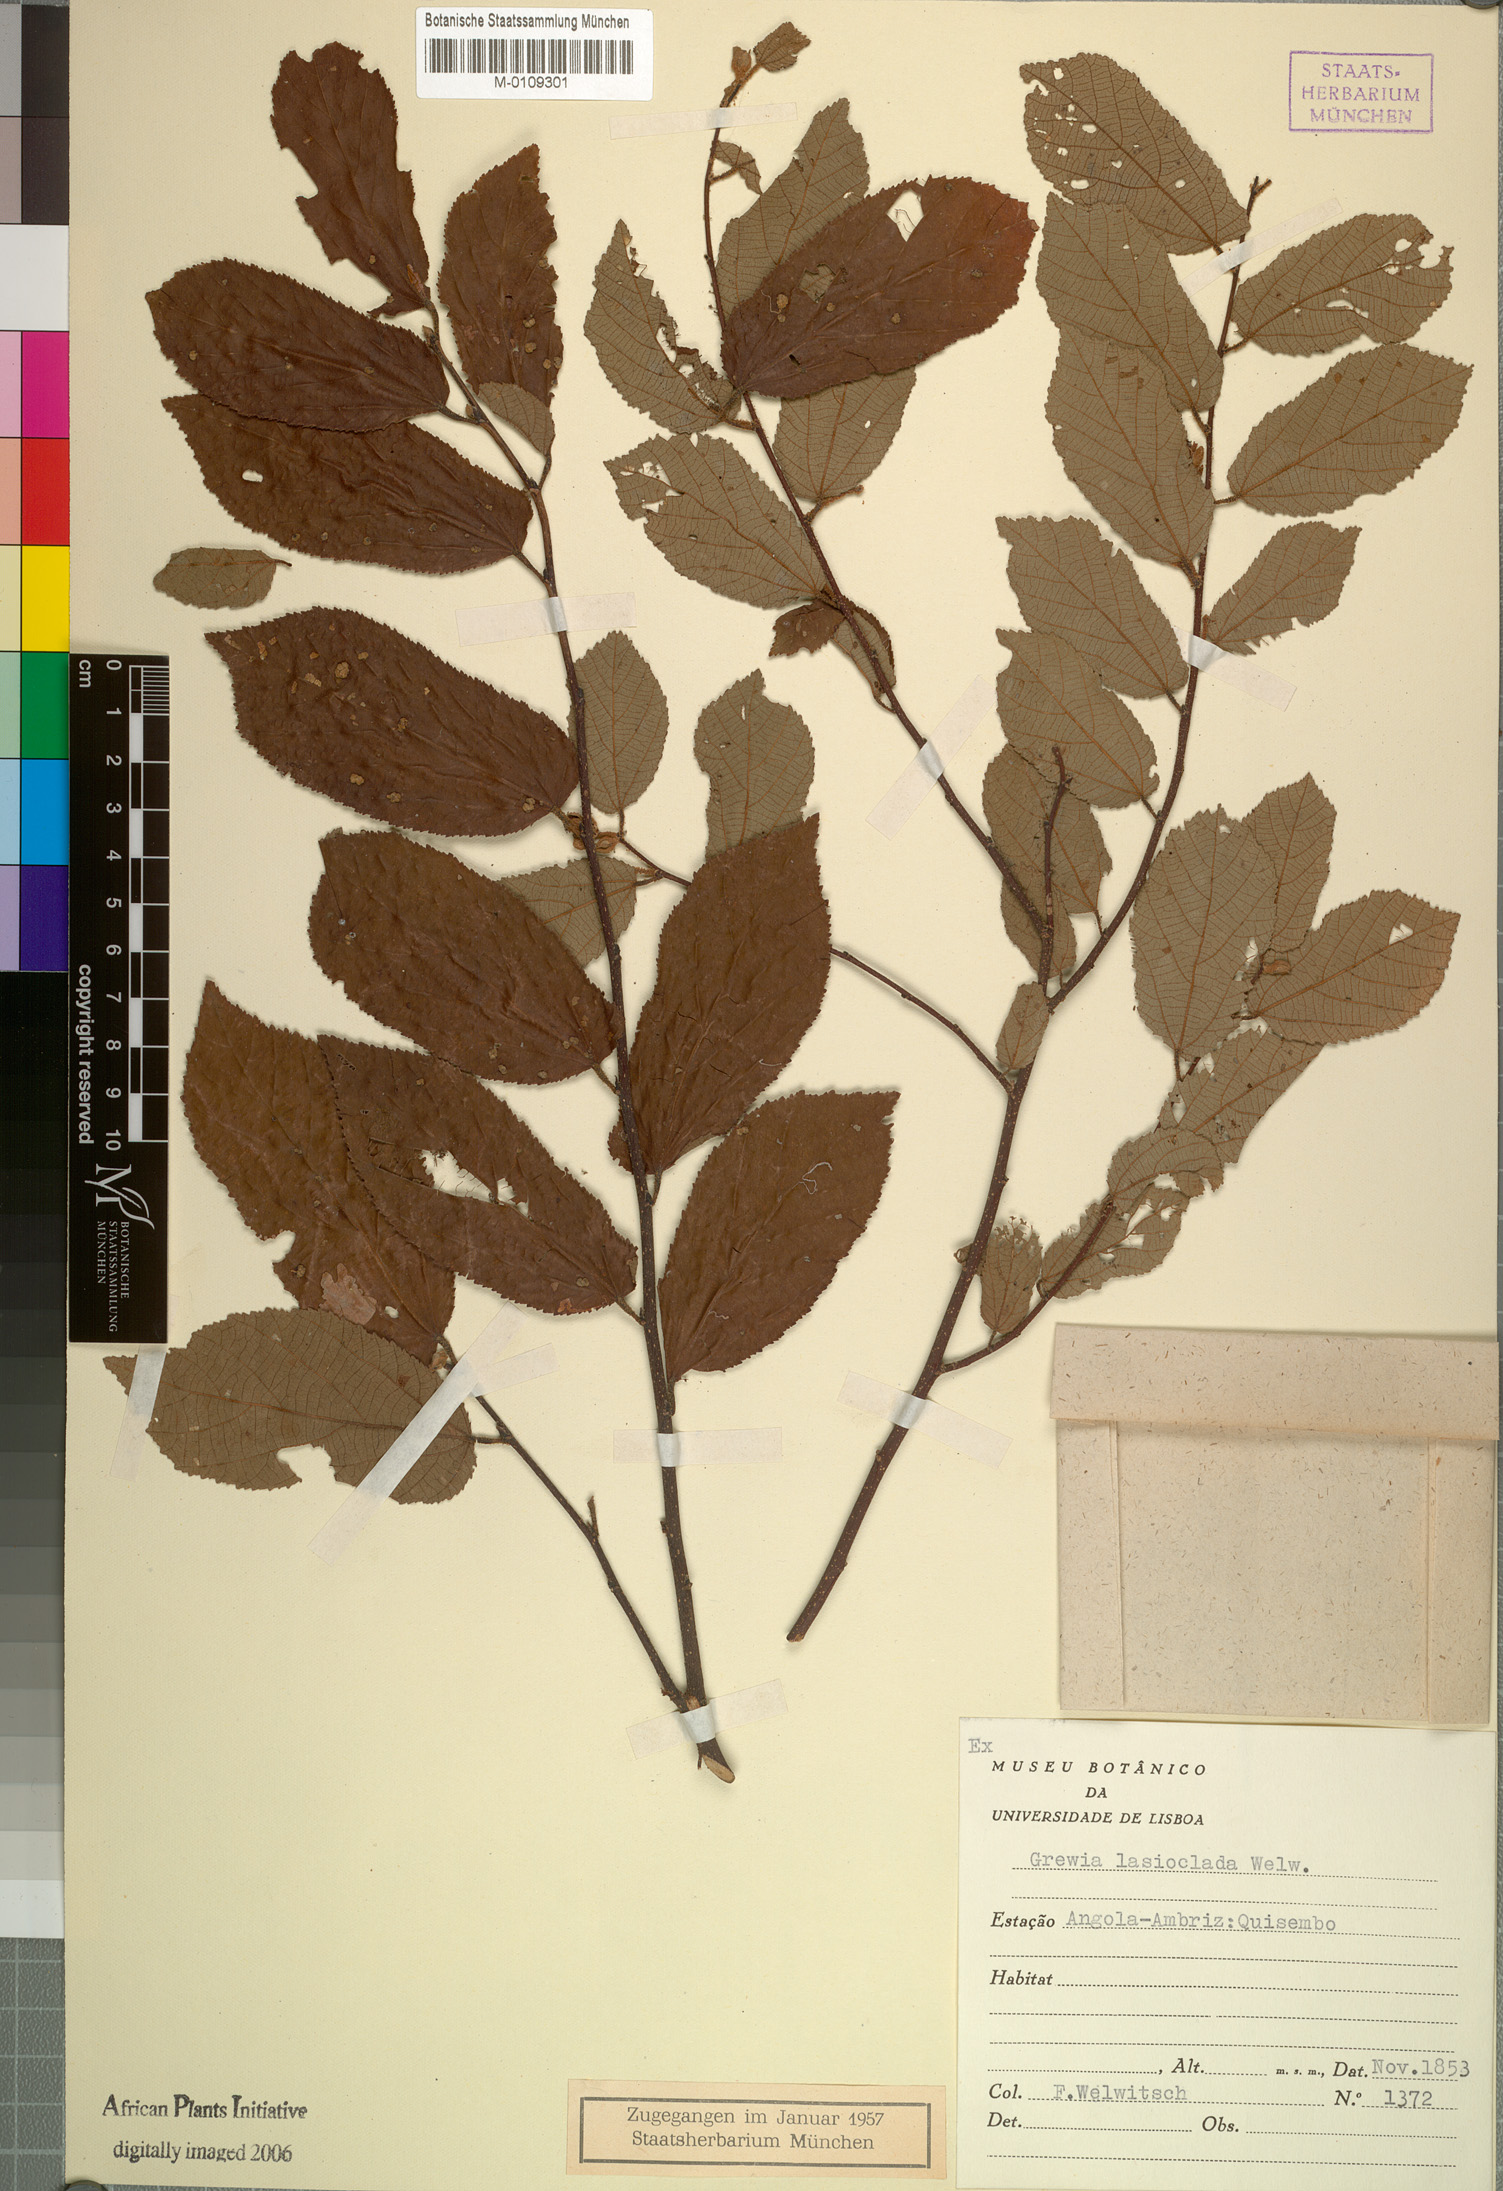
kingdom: Plantae
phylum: Tracheophyta
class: Magnoliopsida
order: Malvales
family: Malvaceae
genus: Grewia
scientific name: Grewia lasioclada
